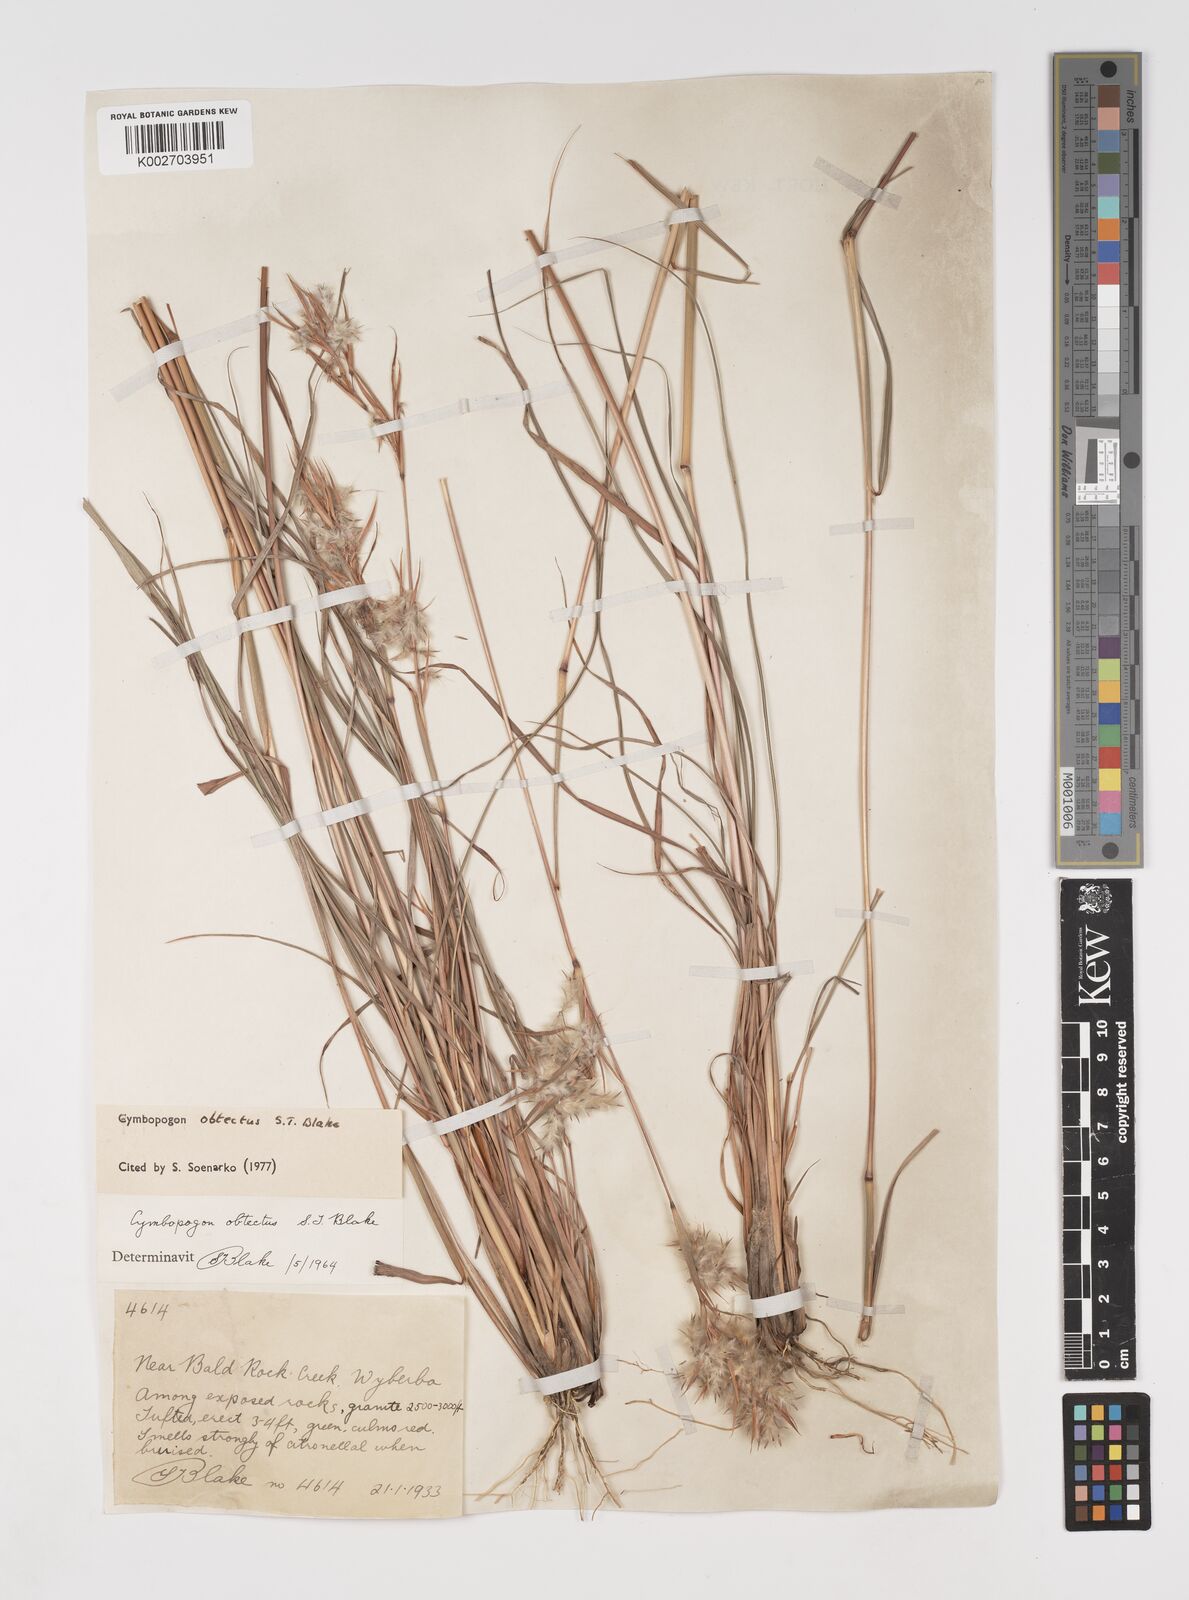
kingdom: Plantae
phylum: Tracheophyta
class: Liliopsida
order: Poales
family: Poaceae
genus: Cymbopogon
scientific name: Cymbopogon obtectus
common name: Silky heads
